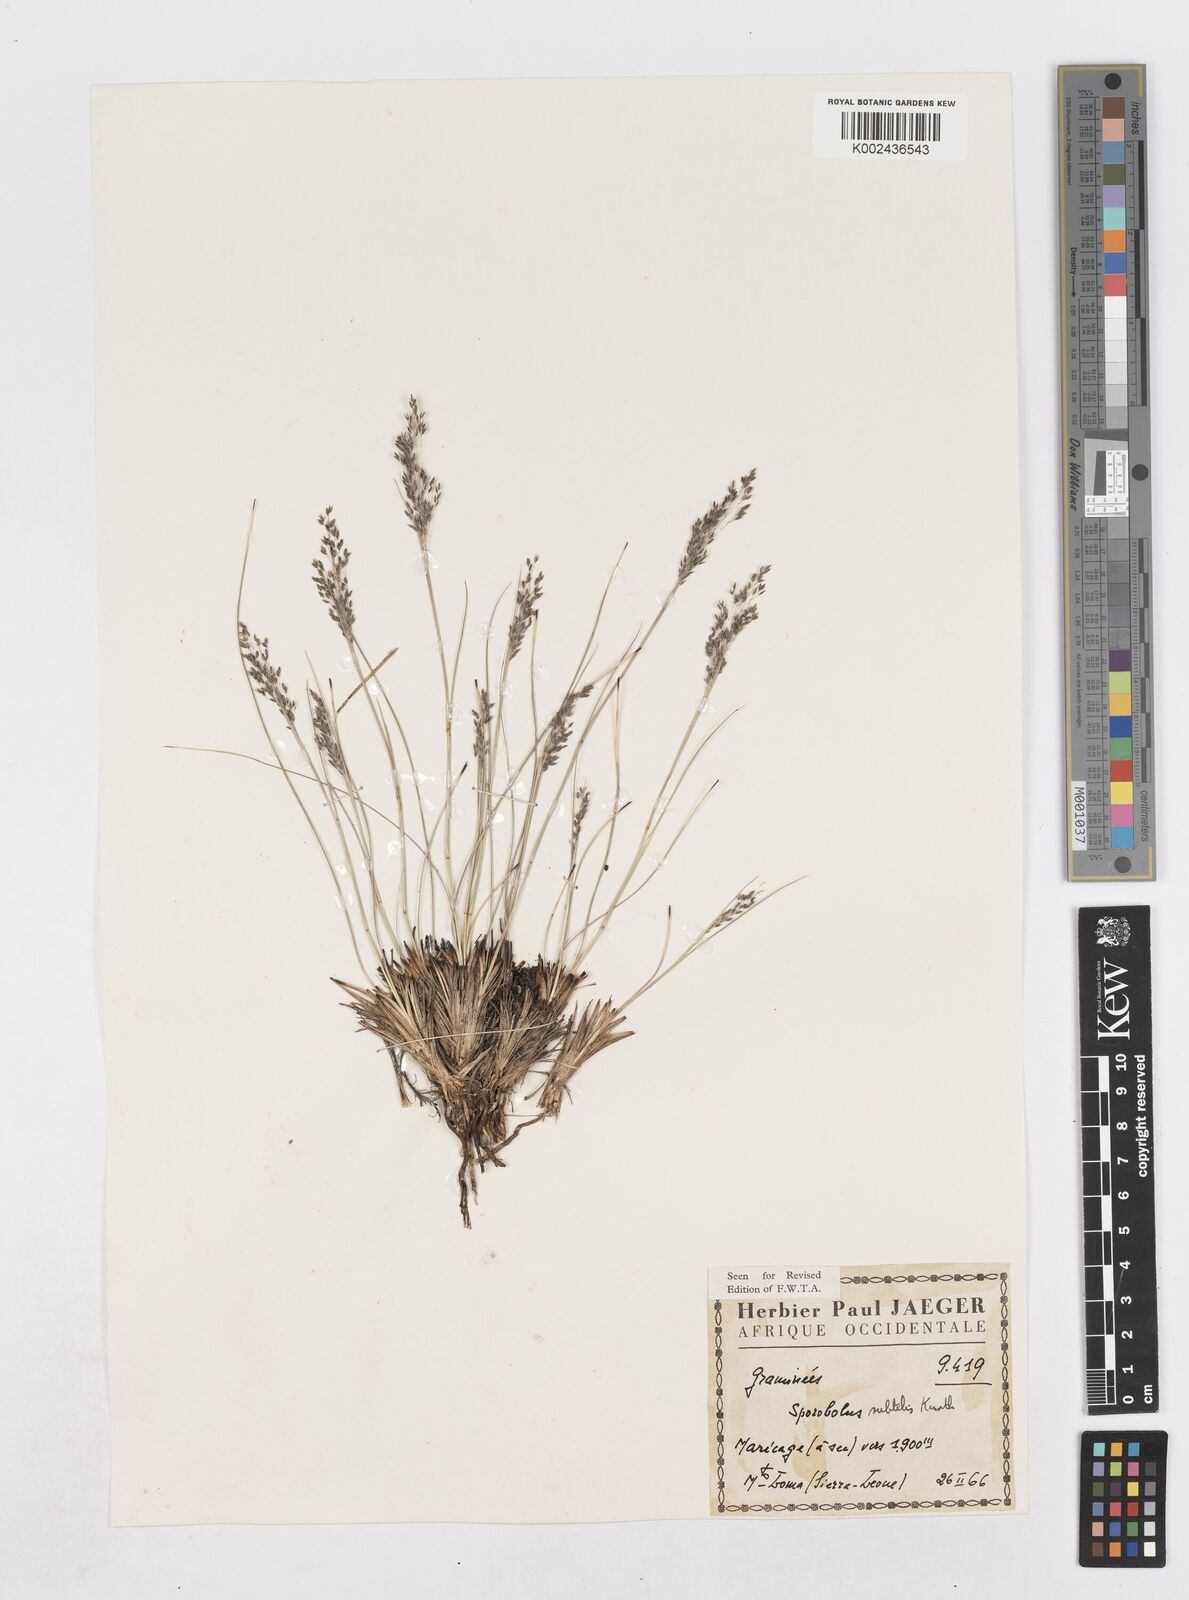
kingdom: Plantae
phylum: Tracheophyta
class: Liliopsida
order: Poales
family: Poaceae
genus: Sporobolus
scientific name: Sporobolus subtilis
